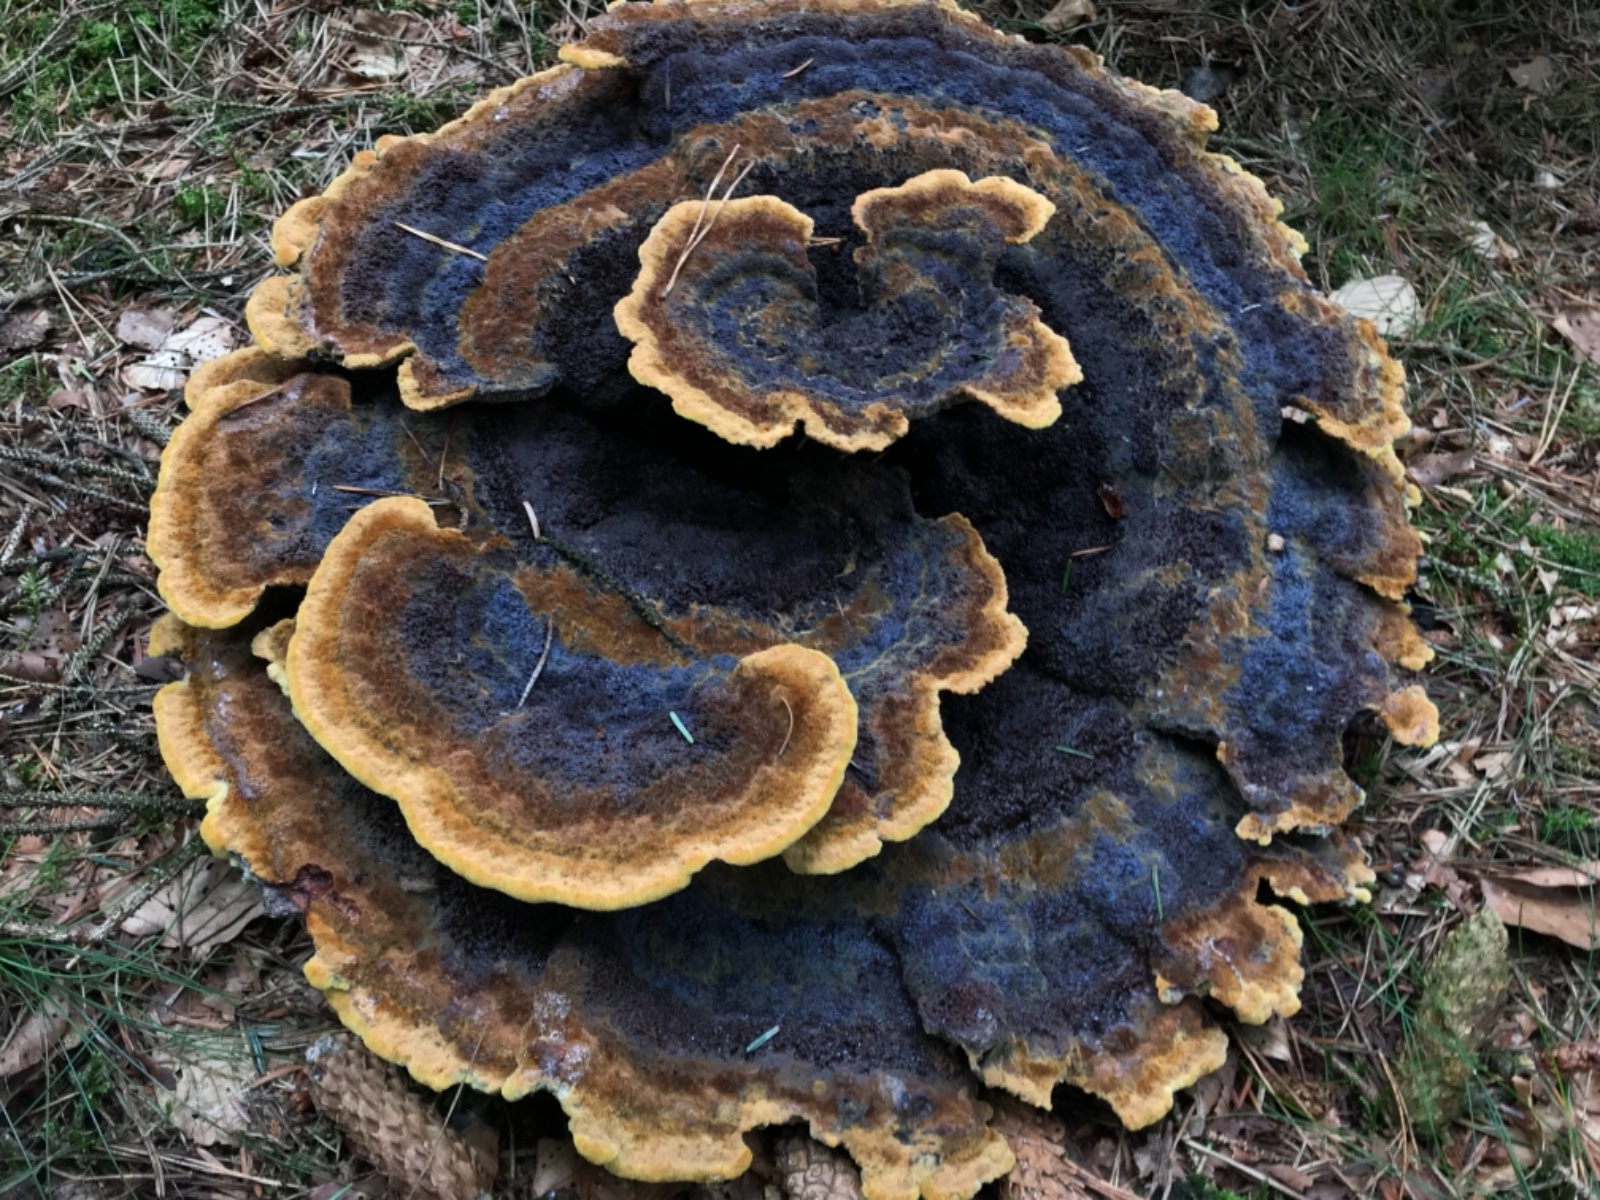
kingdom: Fungi
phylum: Basidiomycota
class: Agaricomycetes
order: Polyporales
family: Laetiporaceae
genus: Phaeolus
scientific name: Phaeolus schweinitzii
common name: brunporesvamp
